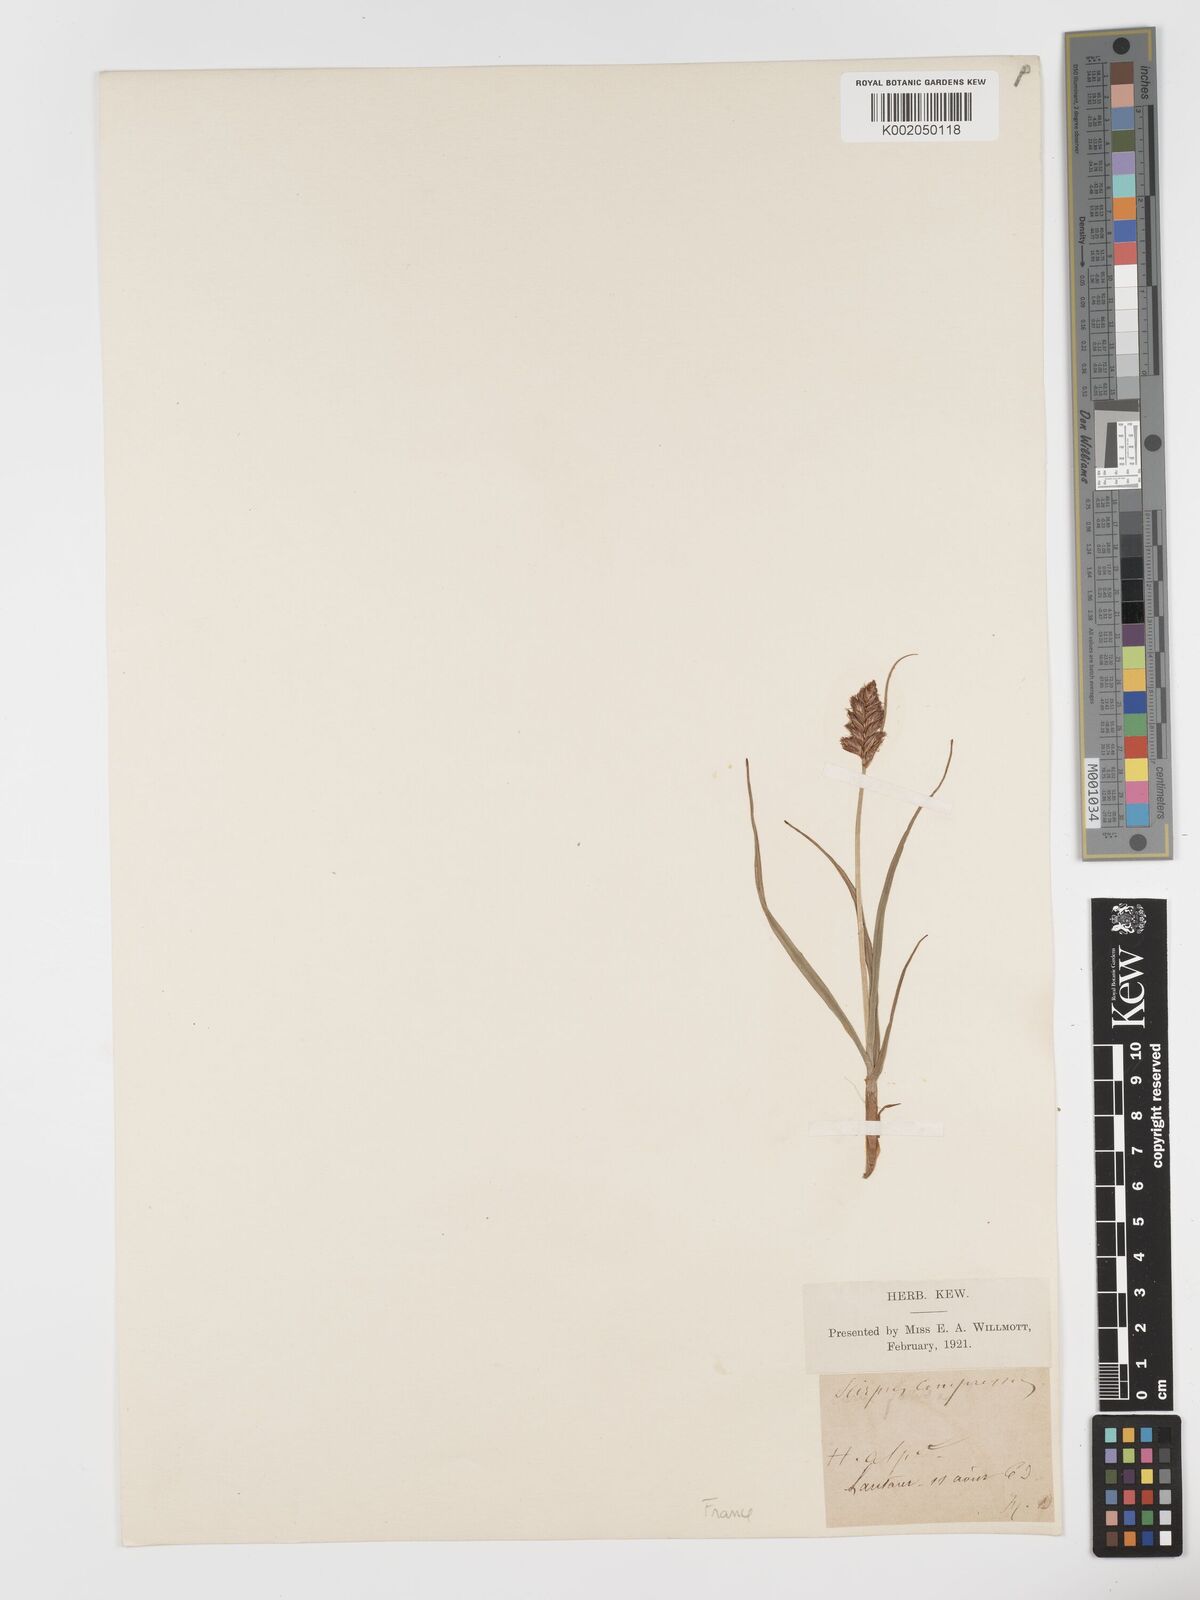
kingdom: Plantae
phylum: Tracheophyta
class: Liliopsida
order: Poales
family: Cyperaceae
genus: Blysmus
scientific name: Blysmus compressus
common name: Flat-sedge
